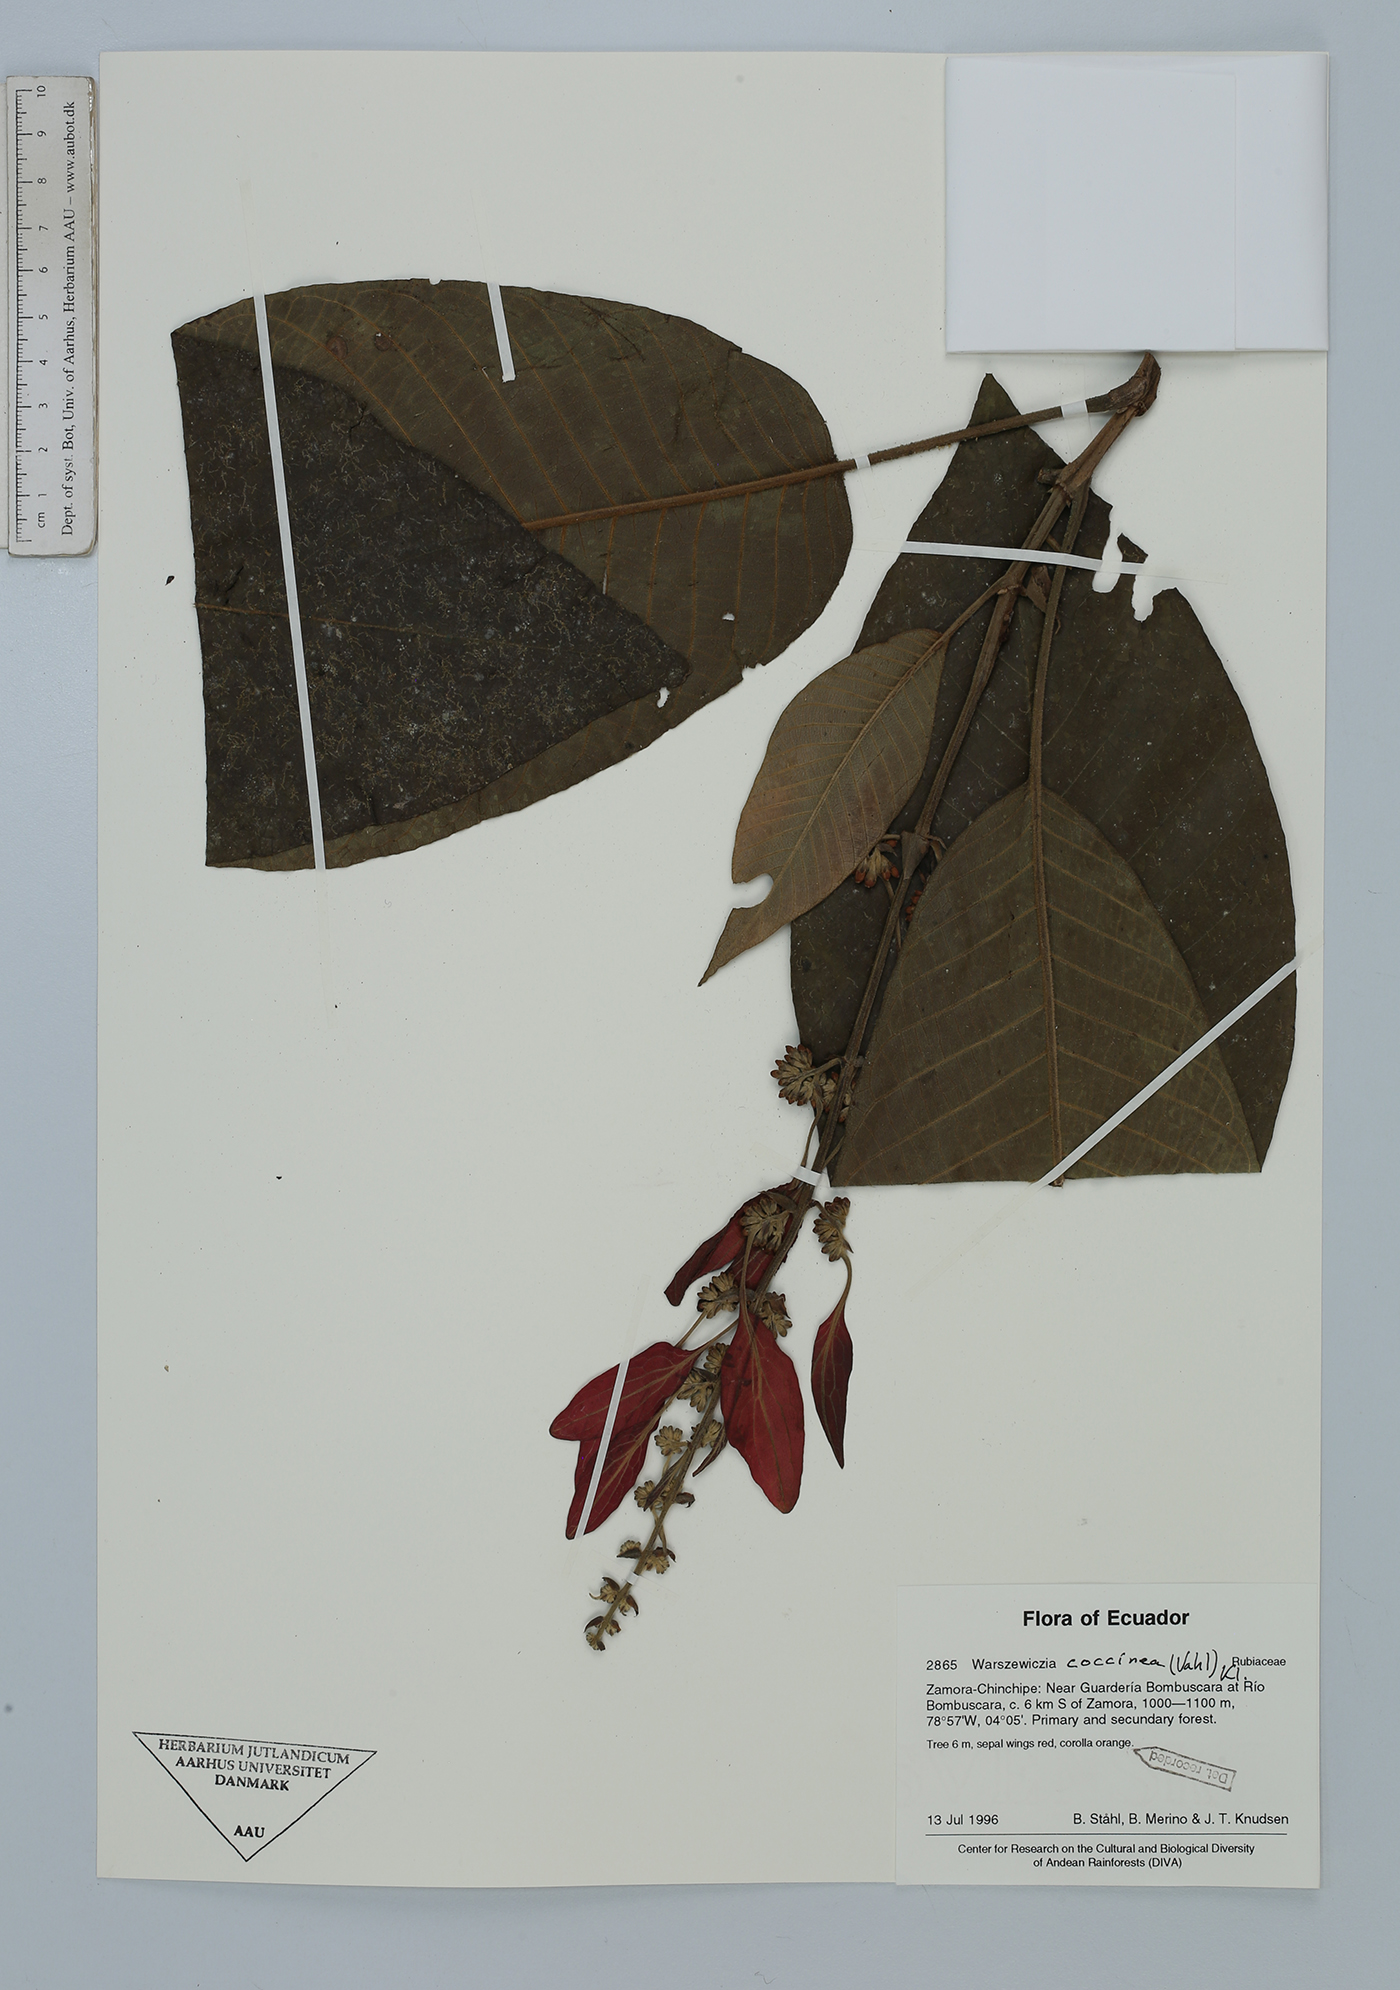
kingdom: Plantae
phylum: Tracheophyta
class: Magnoliopsida
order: Gentianales
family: Rubiaceae
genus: Warszewiczia
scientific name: Warszewiczia coccinea
